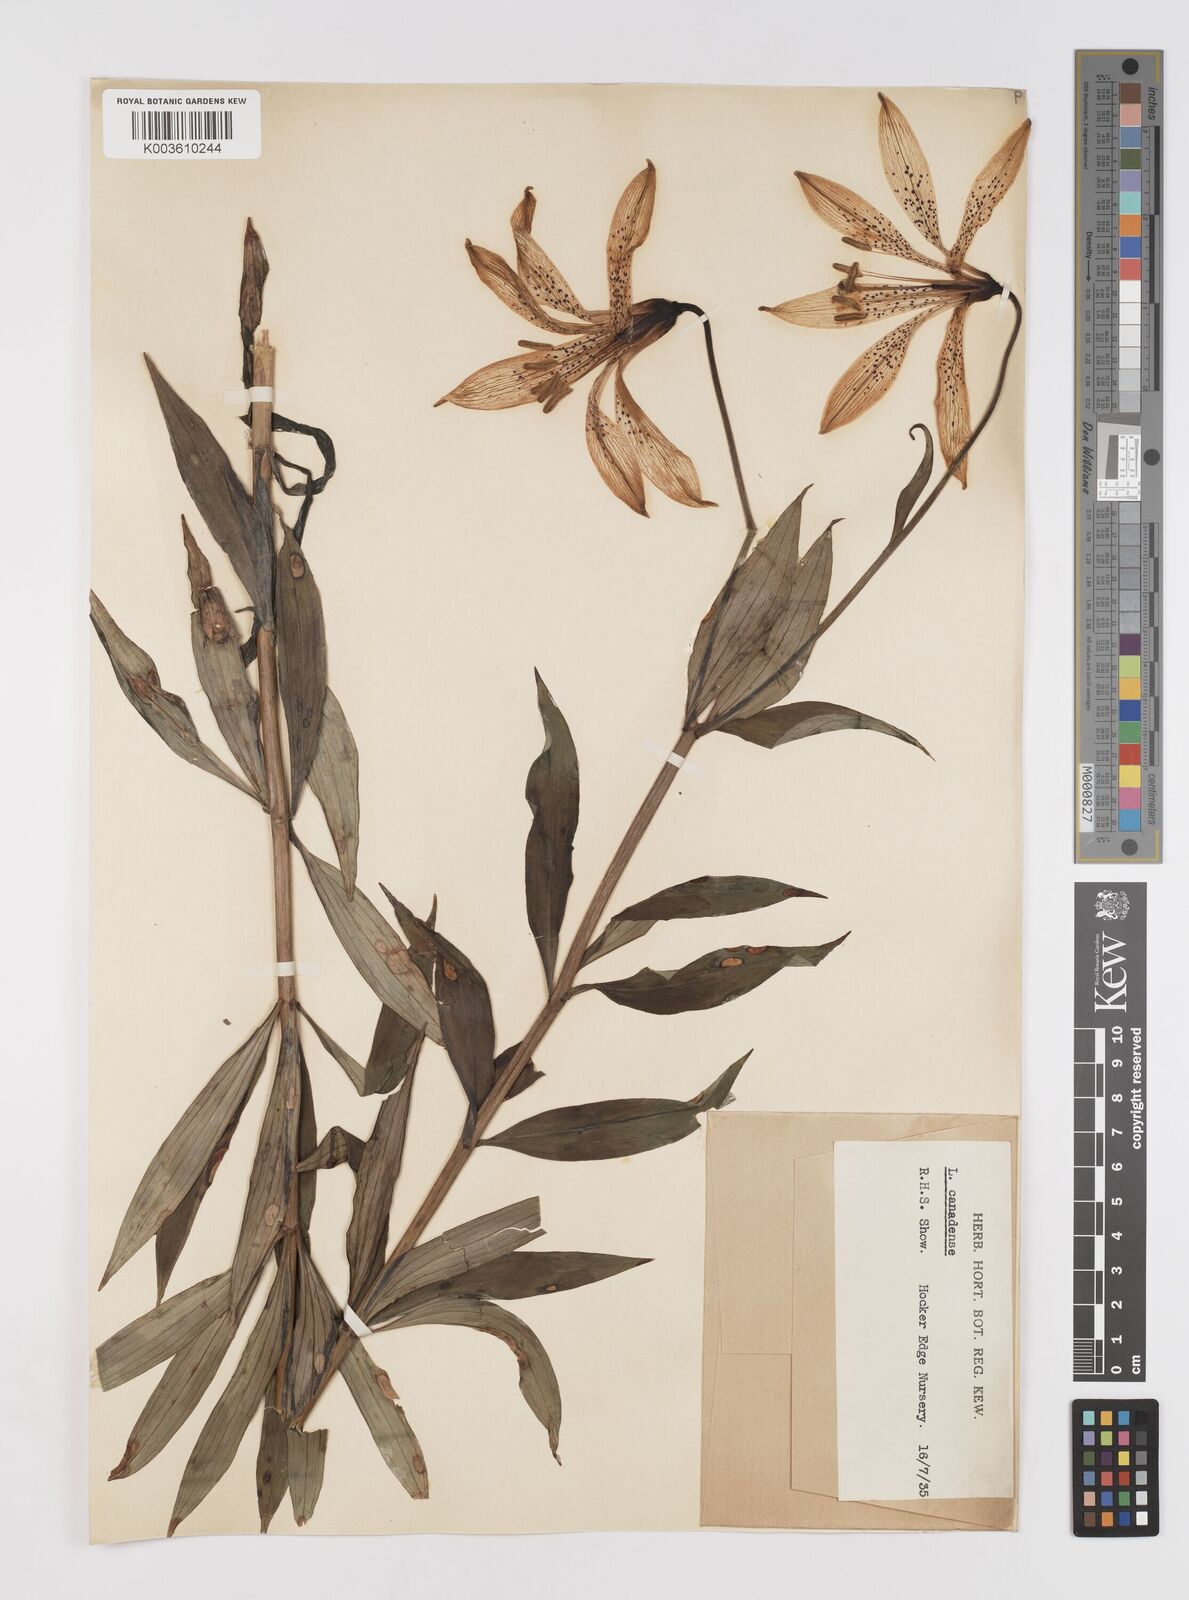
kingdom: Plantae
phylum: Tracheophyta
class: Liliopsida
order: Liliales
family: Liliaceae
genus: Lilium
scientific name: Lilium canadense
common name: Canada lily
